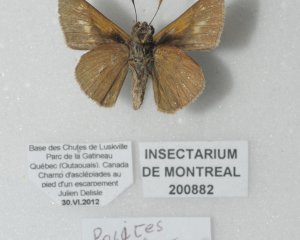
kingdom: Animalia
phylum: Arthropoda
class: Insecta
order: Lepidoptera
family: Hesperiidae
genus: Polites
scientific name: Polites
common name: Crossline Skipper
